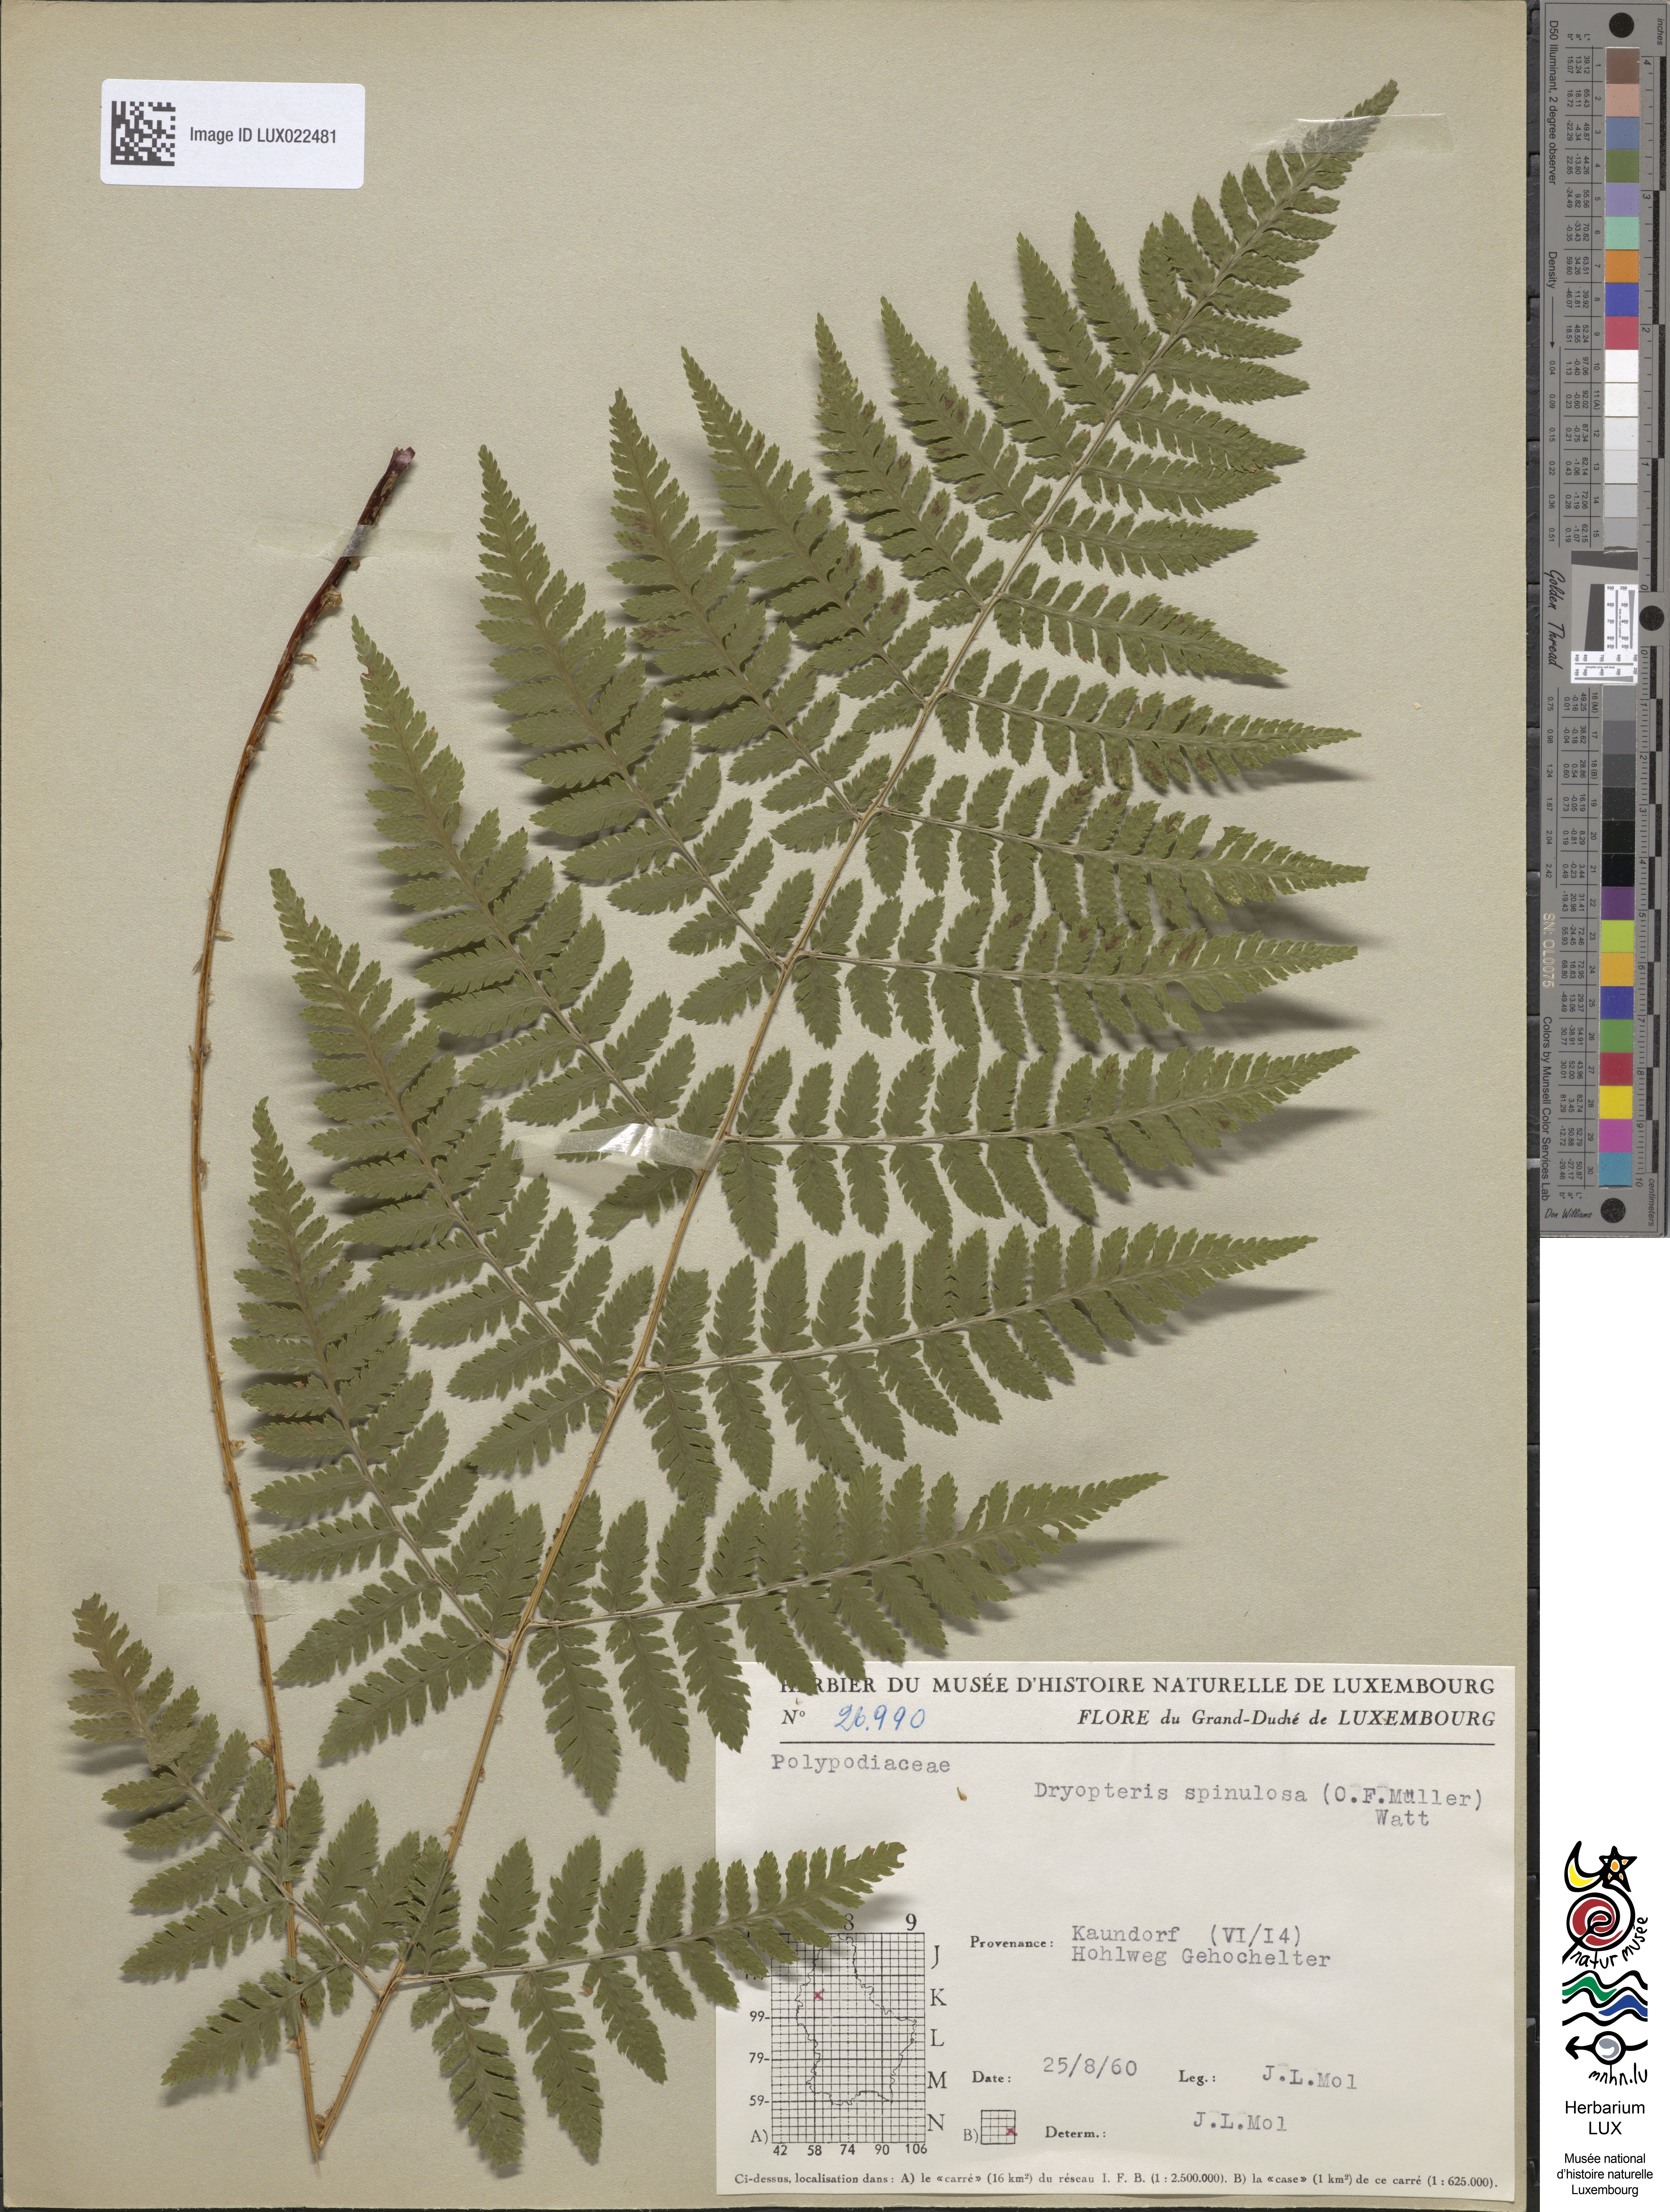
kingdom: Plantae
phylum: Tracheophyta
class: Polypodiopsida
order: Polypodiales
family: Dryopteridaceae
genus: Dryopteris
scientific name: Dryopteris carthusiana
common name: Narrow buckler-fern
